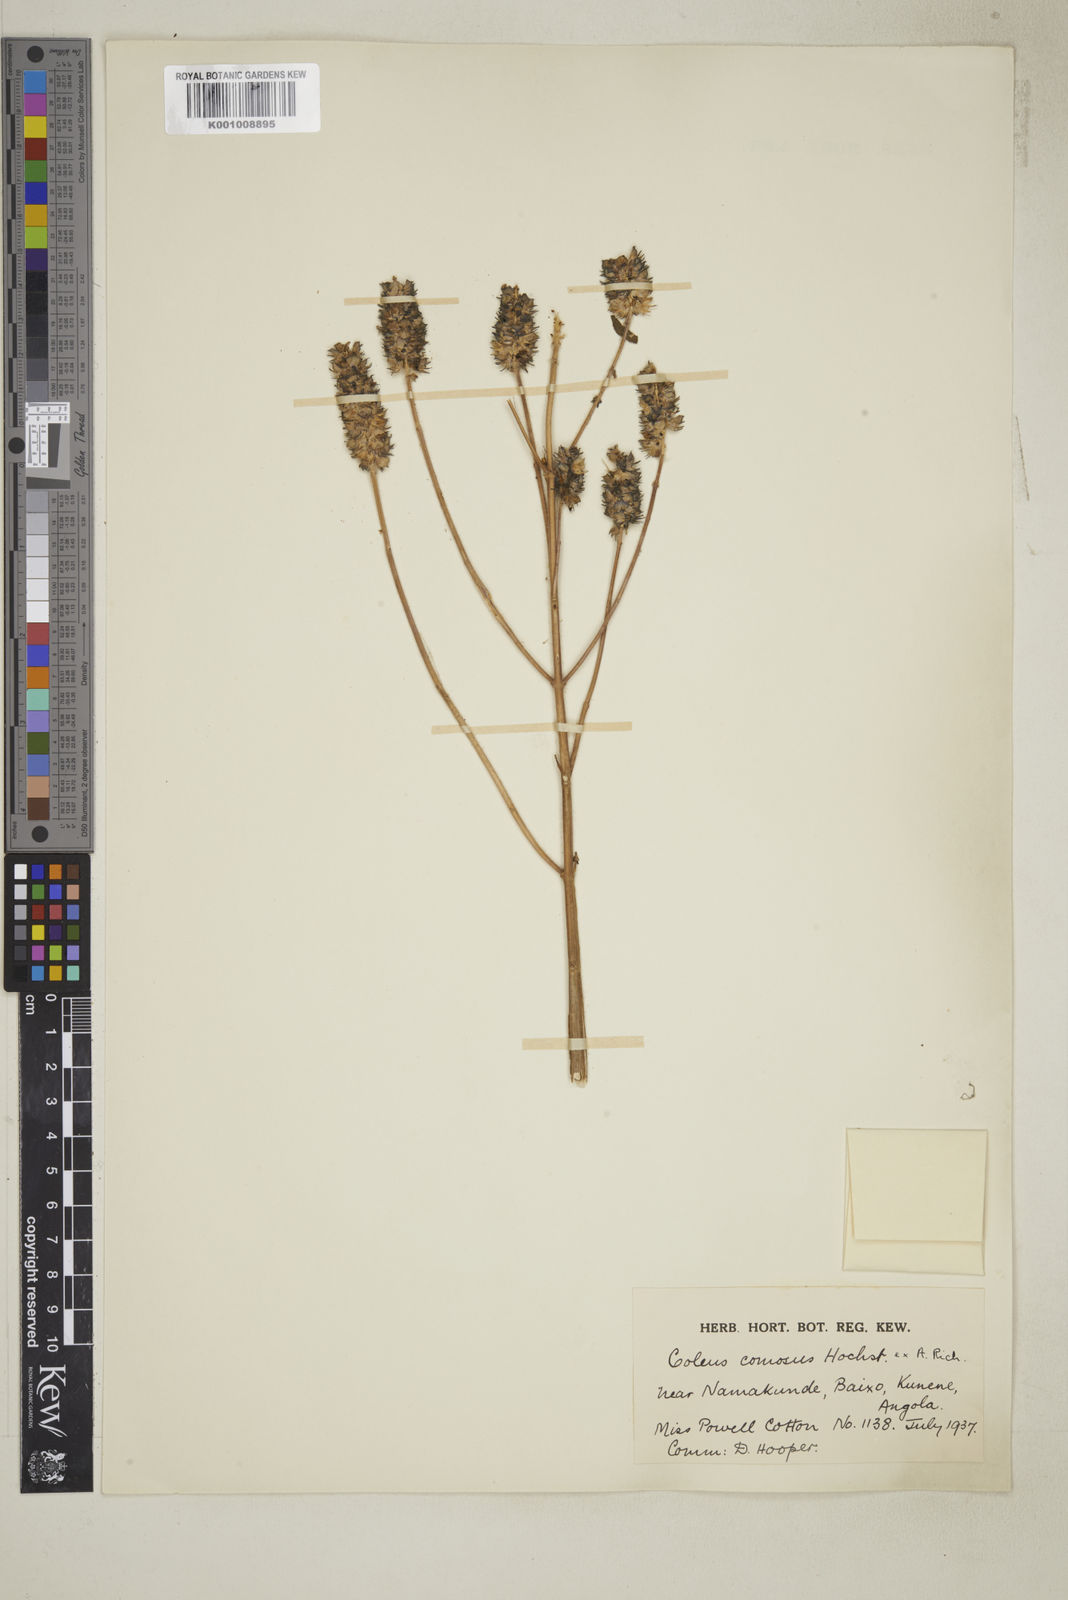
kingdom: Plantae
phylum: Tracheophyta
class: Magnoliopsida
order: Lamiales
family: Lamiaceae
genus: Coleus
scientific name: Coleus caninus
